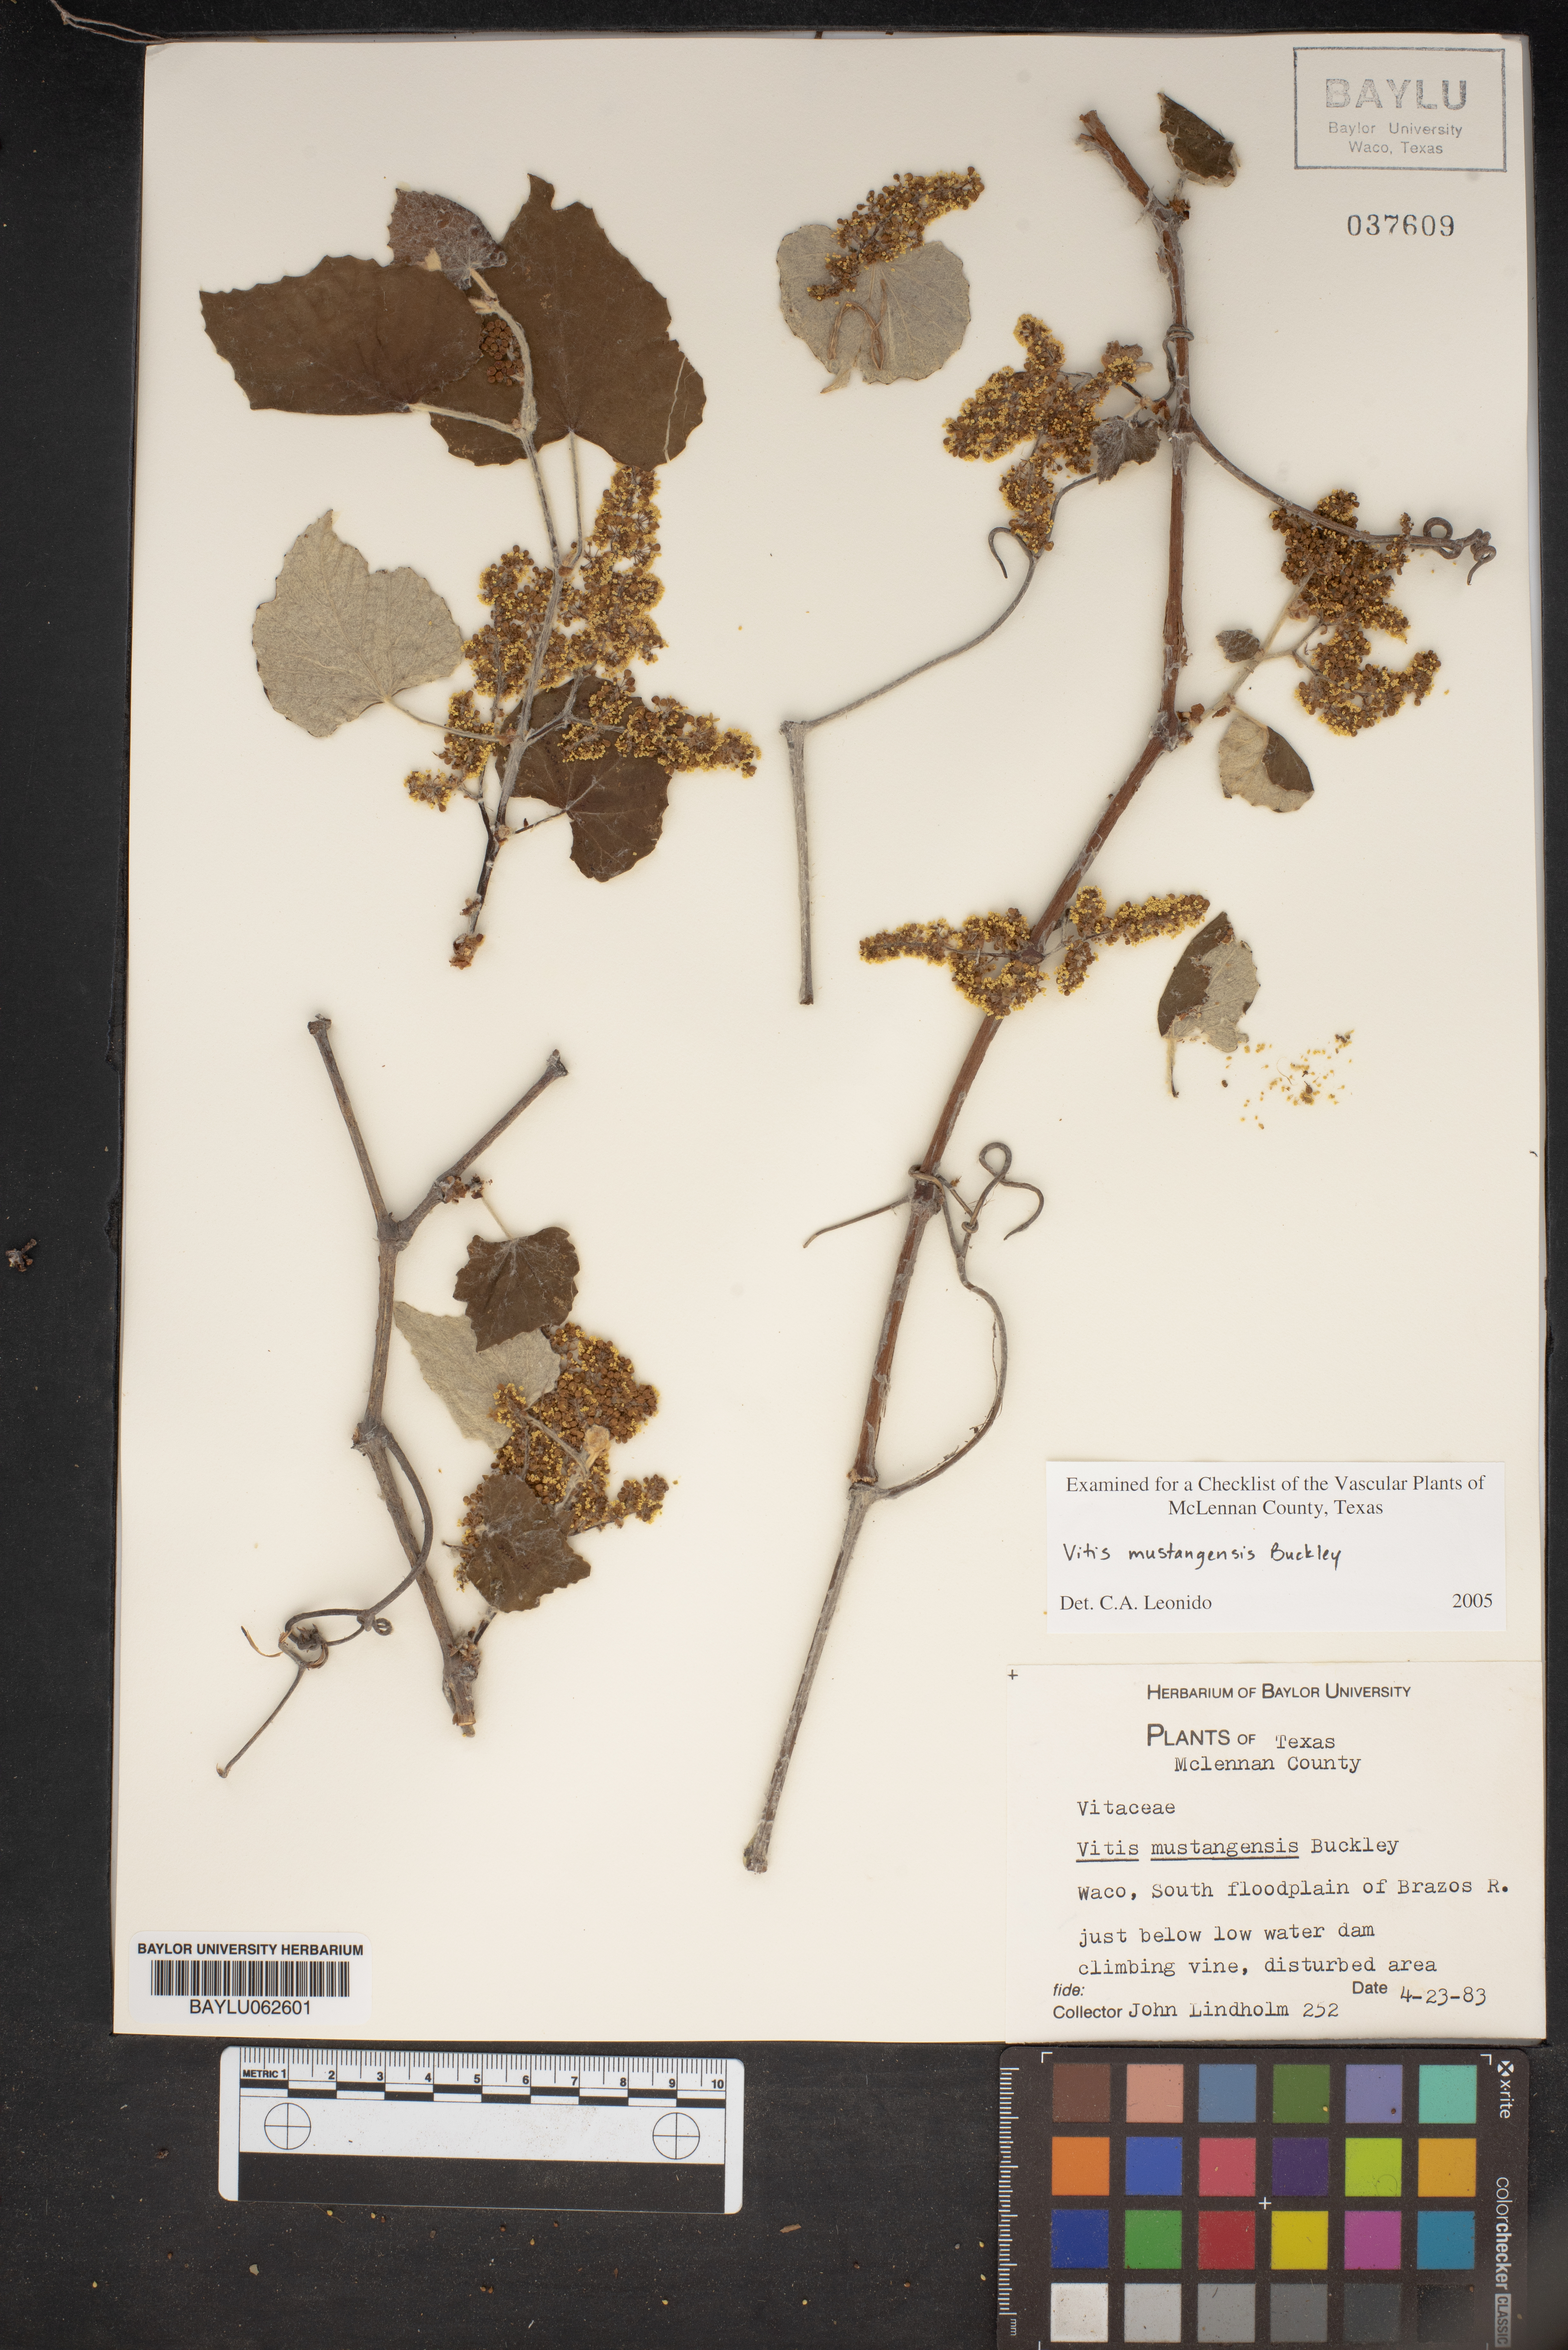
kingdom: Plantae
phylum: Tracheophyta
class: Magnoliopsida
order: Vitales
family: Vitaceae
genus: Vitis
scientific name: Vitis mustangensis
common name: Mustang grape
